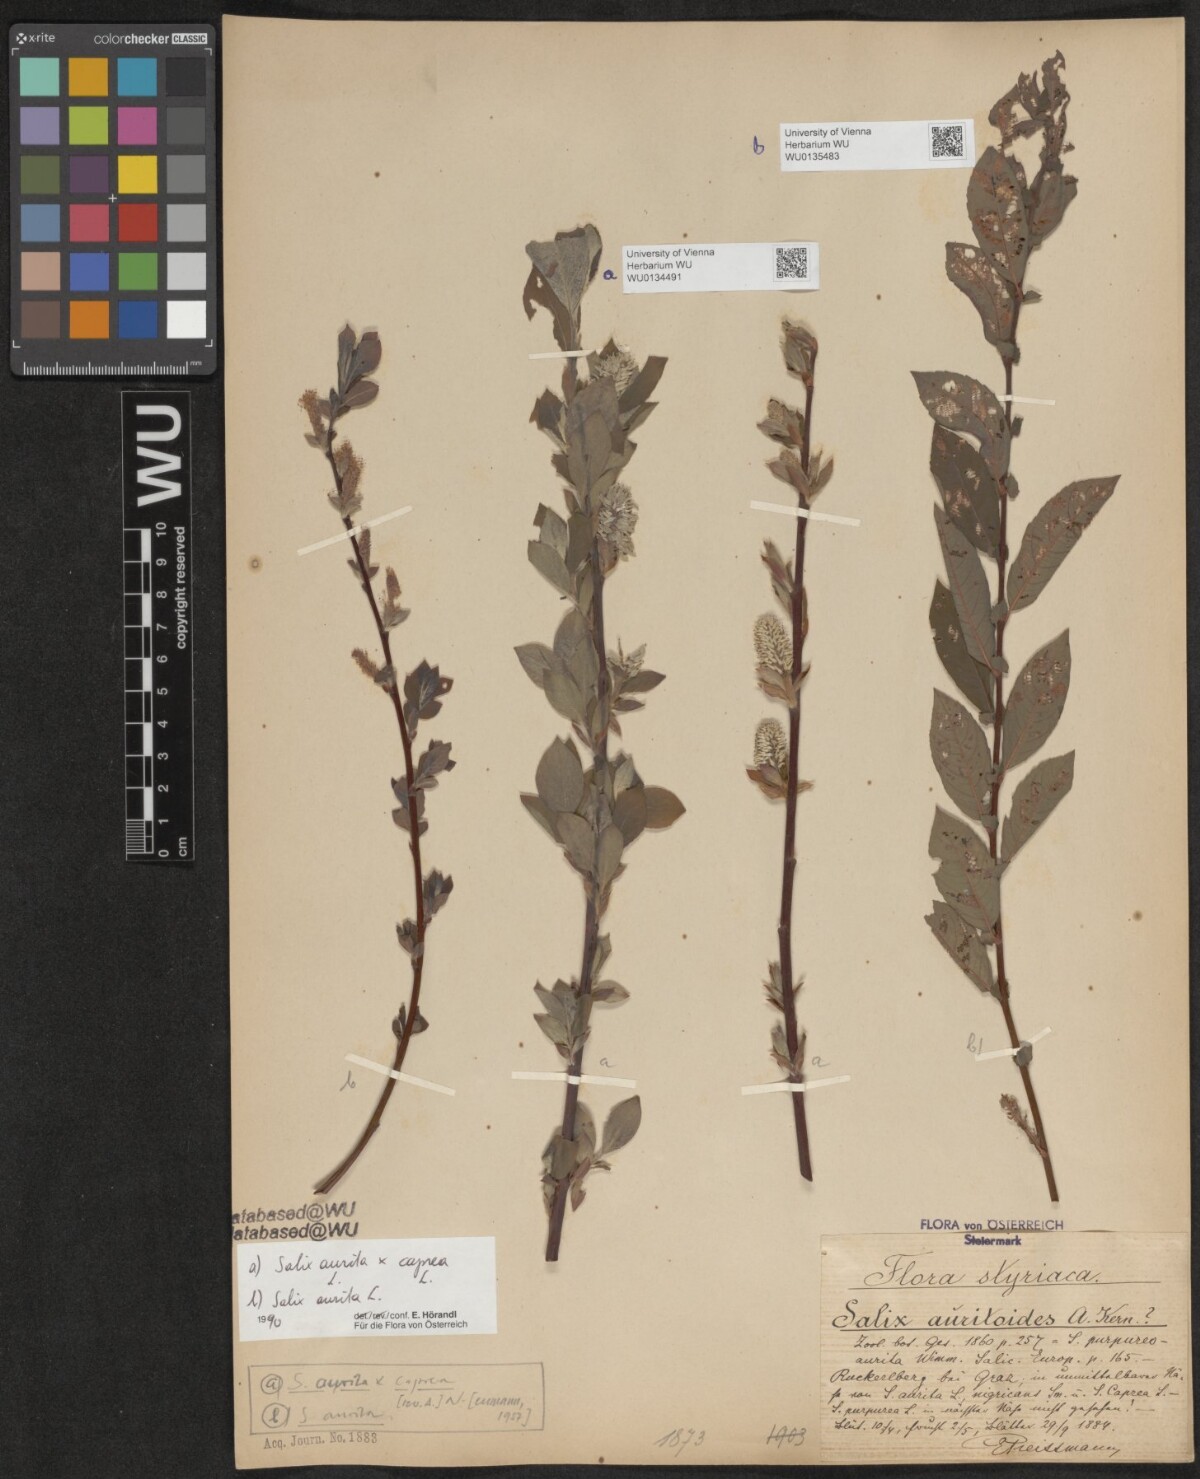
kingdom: Plantae
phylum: Tracheophyta
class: Magnoliopsida
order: Malpighiales
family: Salicaceae
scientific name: Salicaceae
